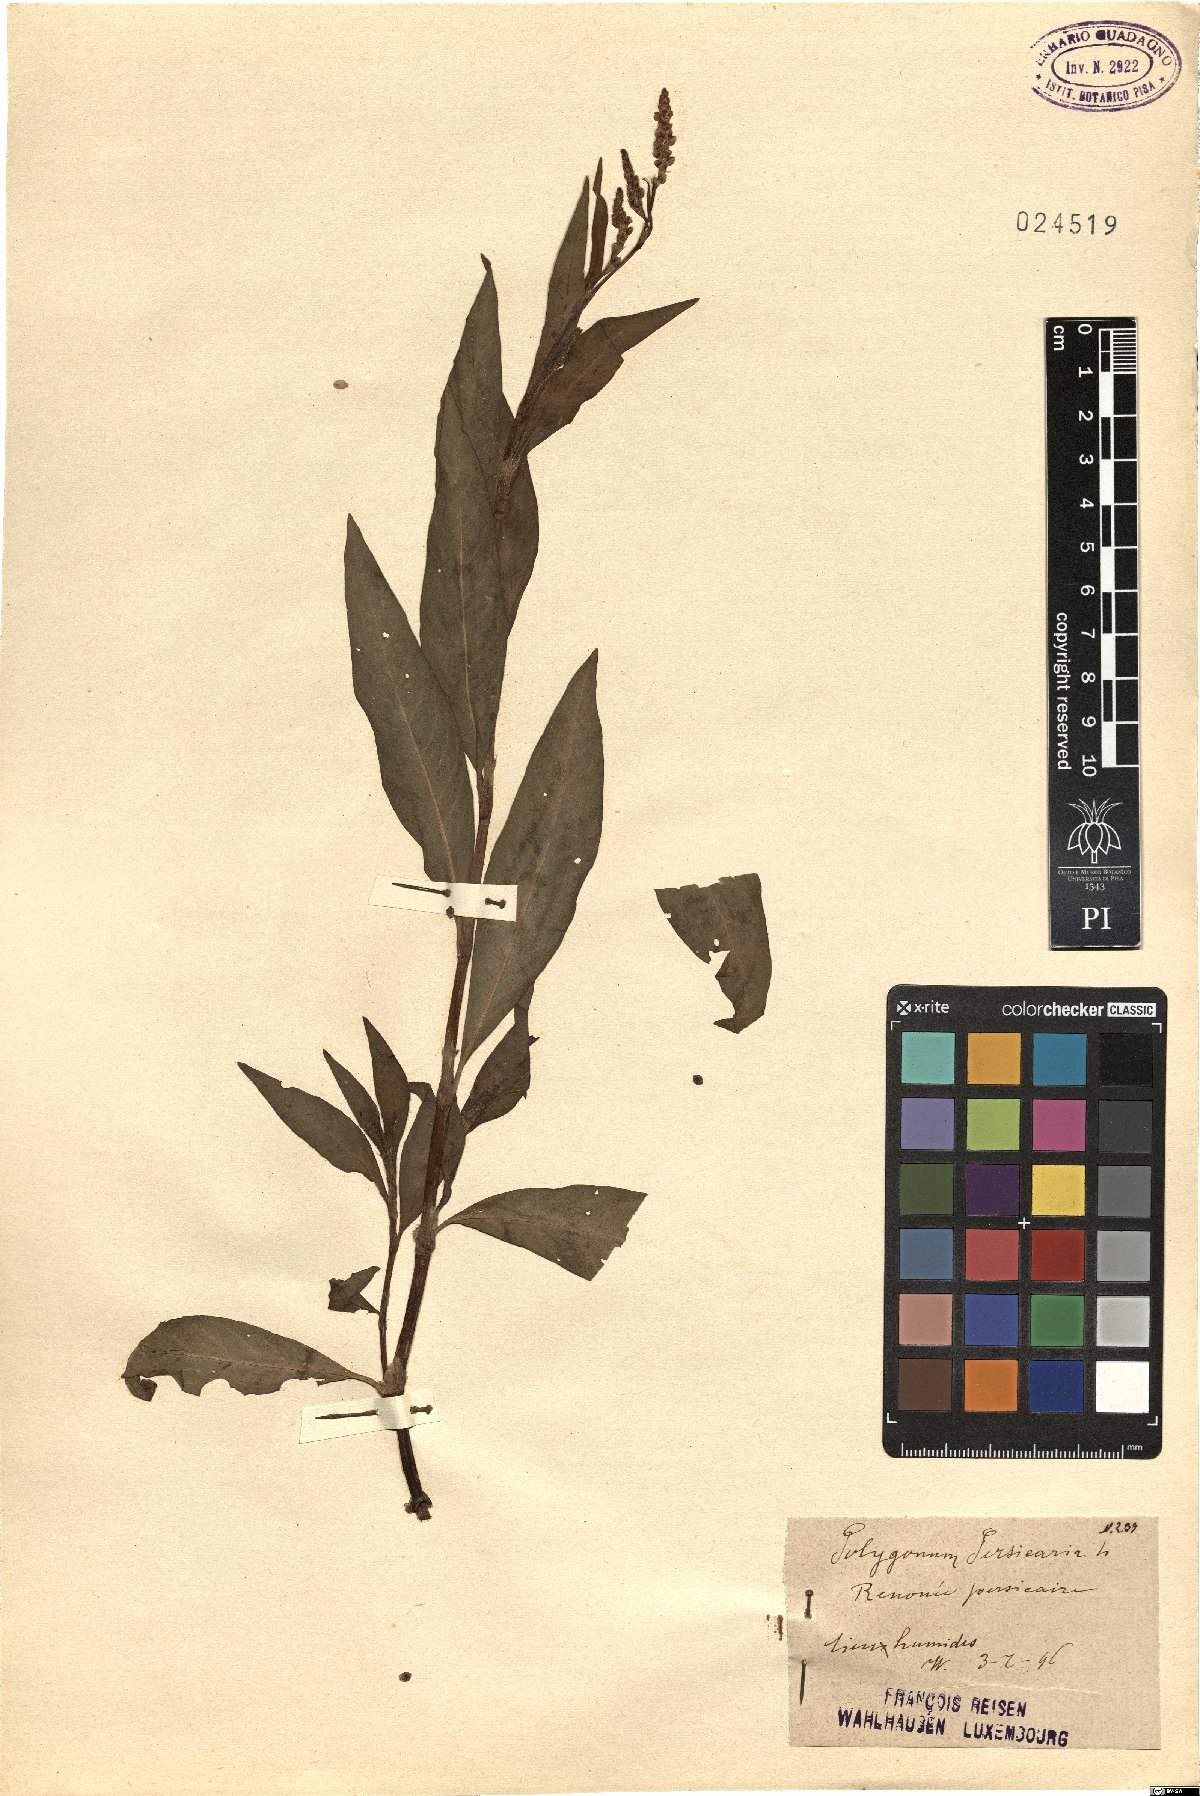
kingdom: Plantae
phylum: Tracheophyta
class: Magnoliopsida
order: Caryophyllales
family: Polygonaceae
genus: Persicaria
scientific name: Persicaria maculosa
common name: Redshank
